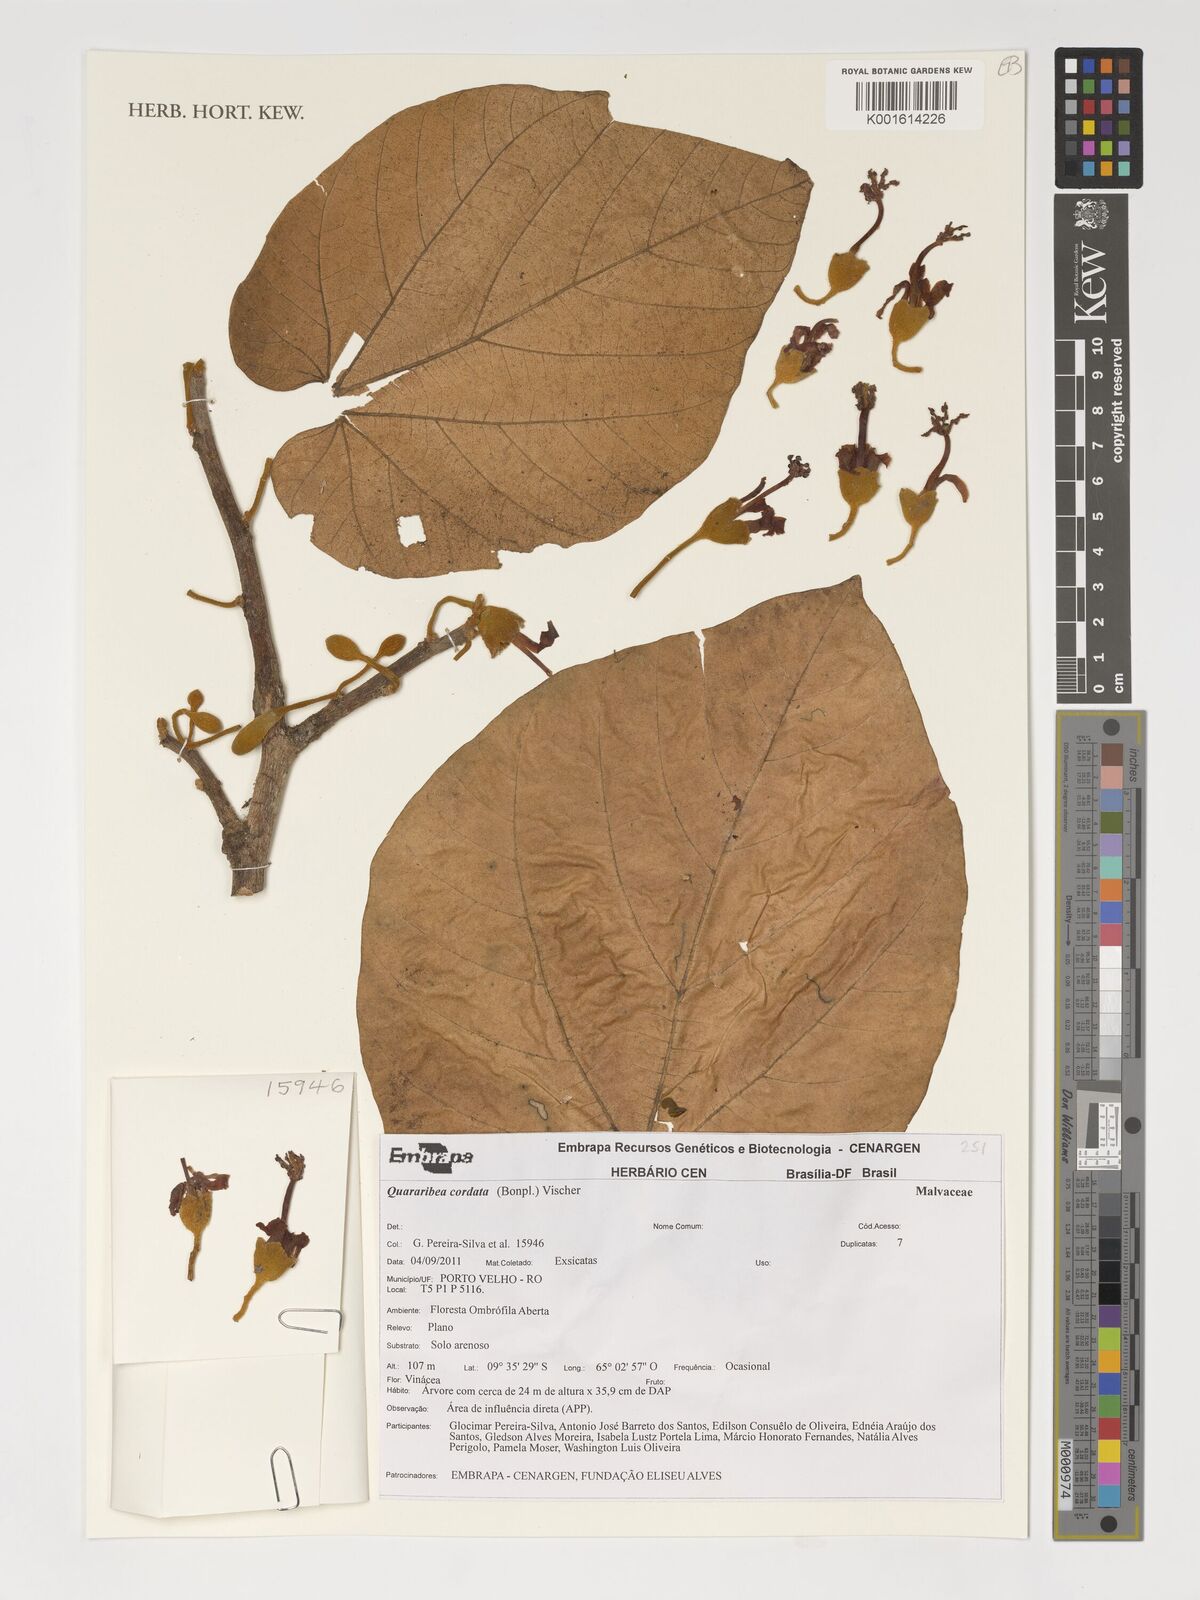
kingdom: Plantae
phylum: Tracheophyta
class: Magnoliopsida
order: Malvales
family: Malvaceae
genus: Matisia
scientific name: Matisia cordata
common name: South american sapote
